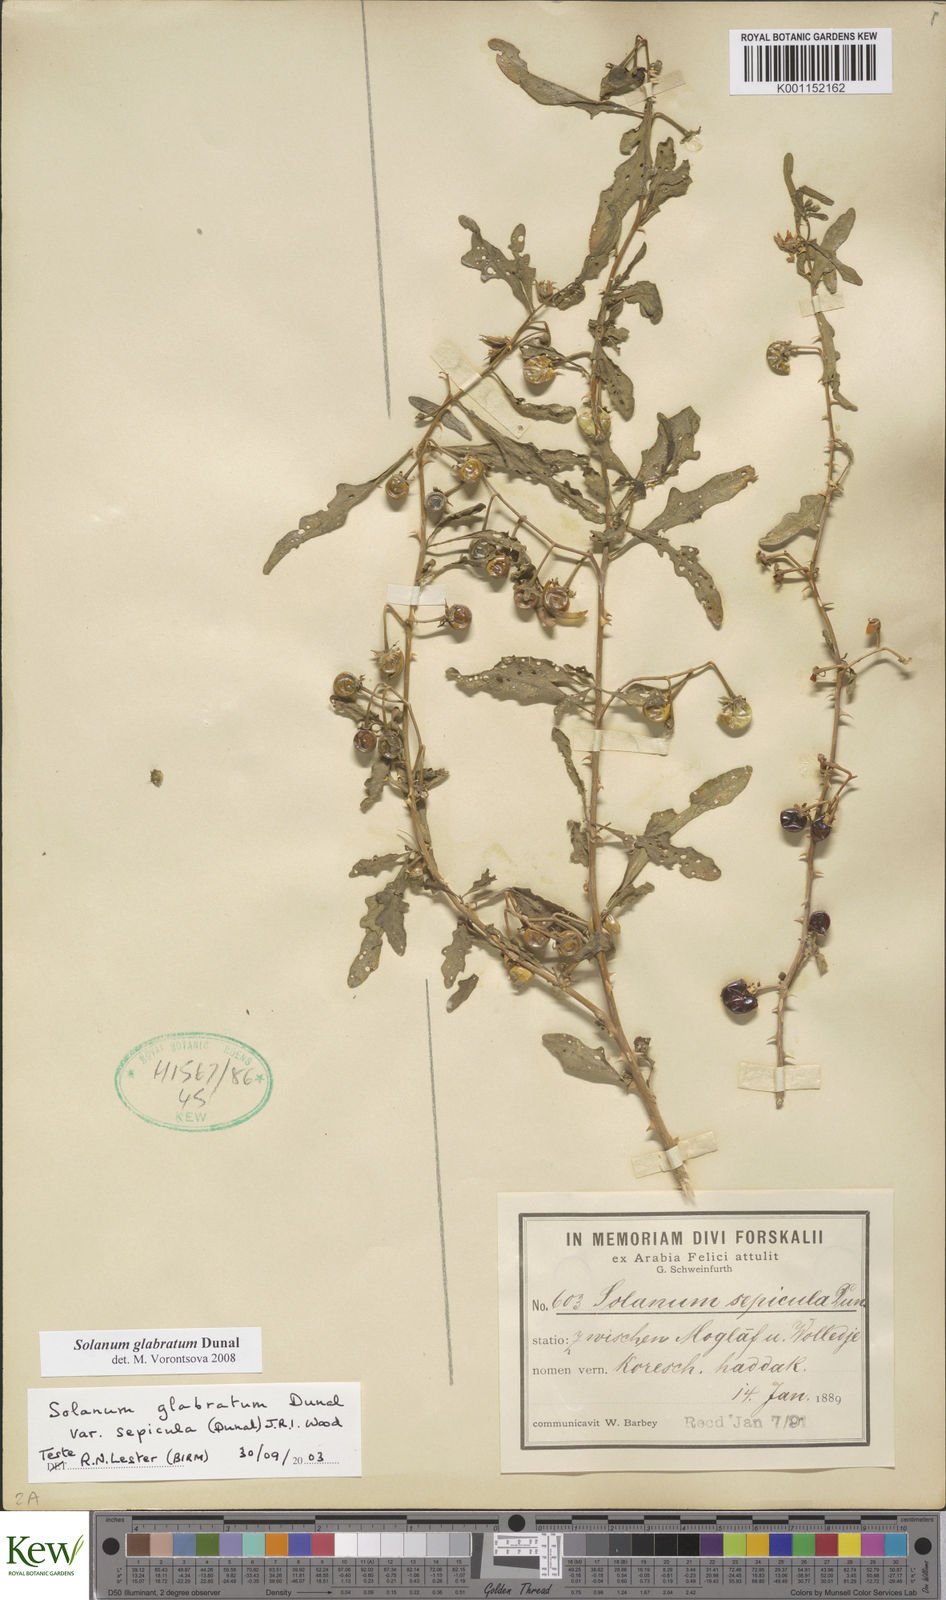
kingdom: Plantae
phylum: Tracheophyta
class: Magnoliopsida
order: Solanales
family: Solanaceae
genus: Solanum
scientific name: Solanum glabratum
